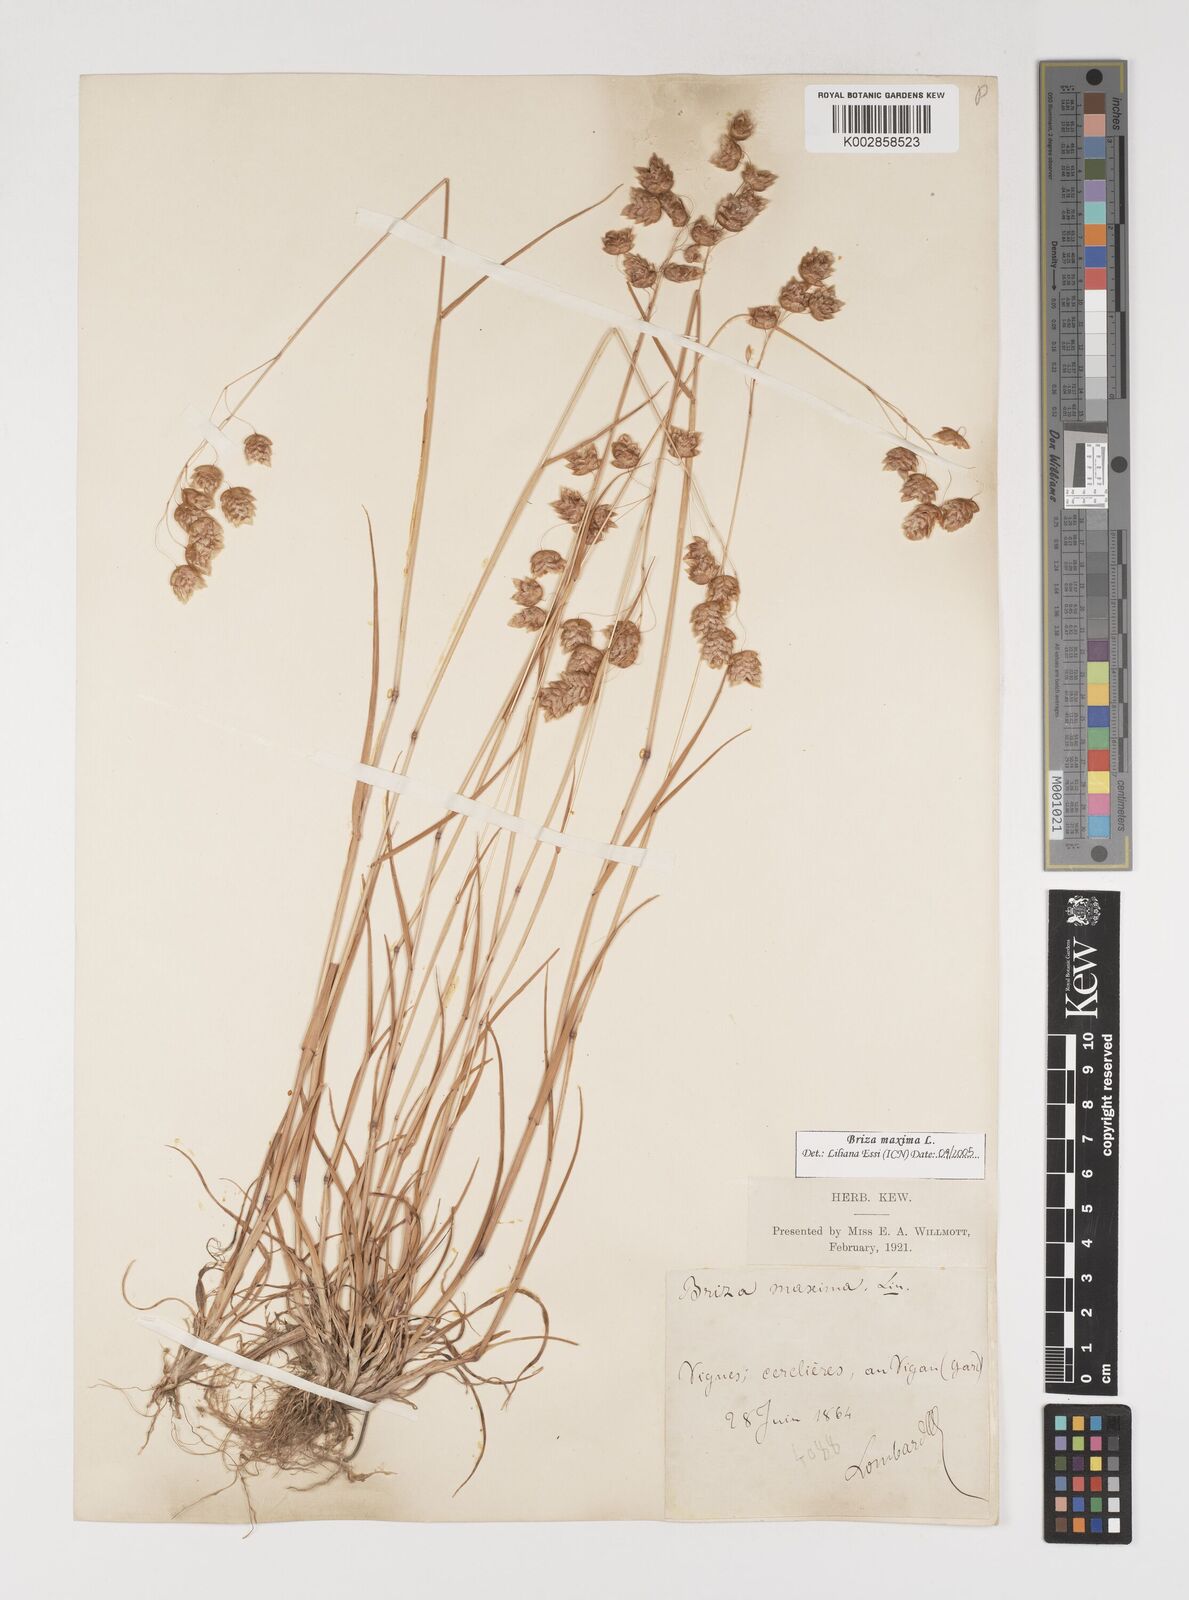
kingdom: Plantae
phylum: Tracheophyta
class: Liliopsida
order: Poales
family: Poaceae
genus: Briza
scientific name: Briza maxima
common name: Big quakinggrass
